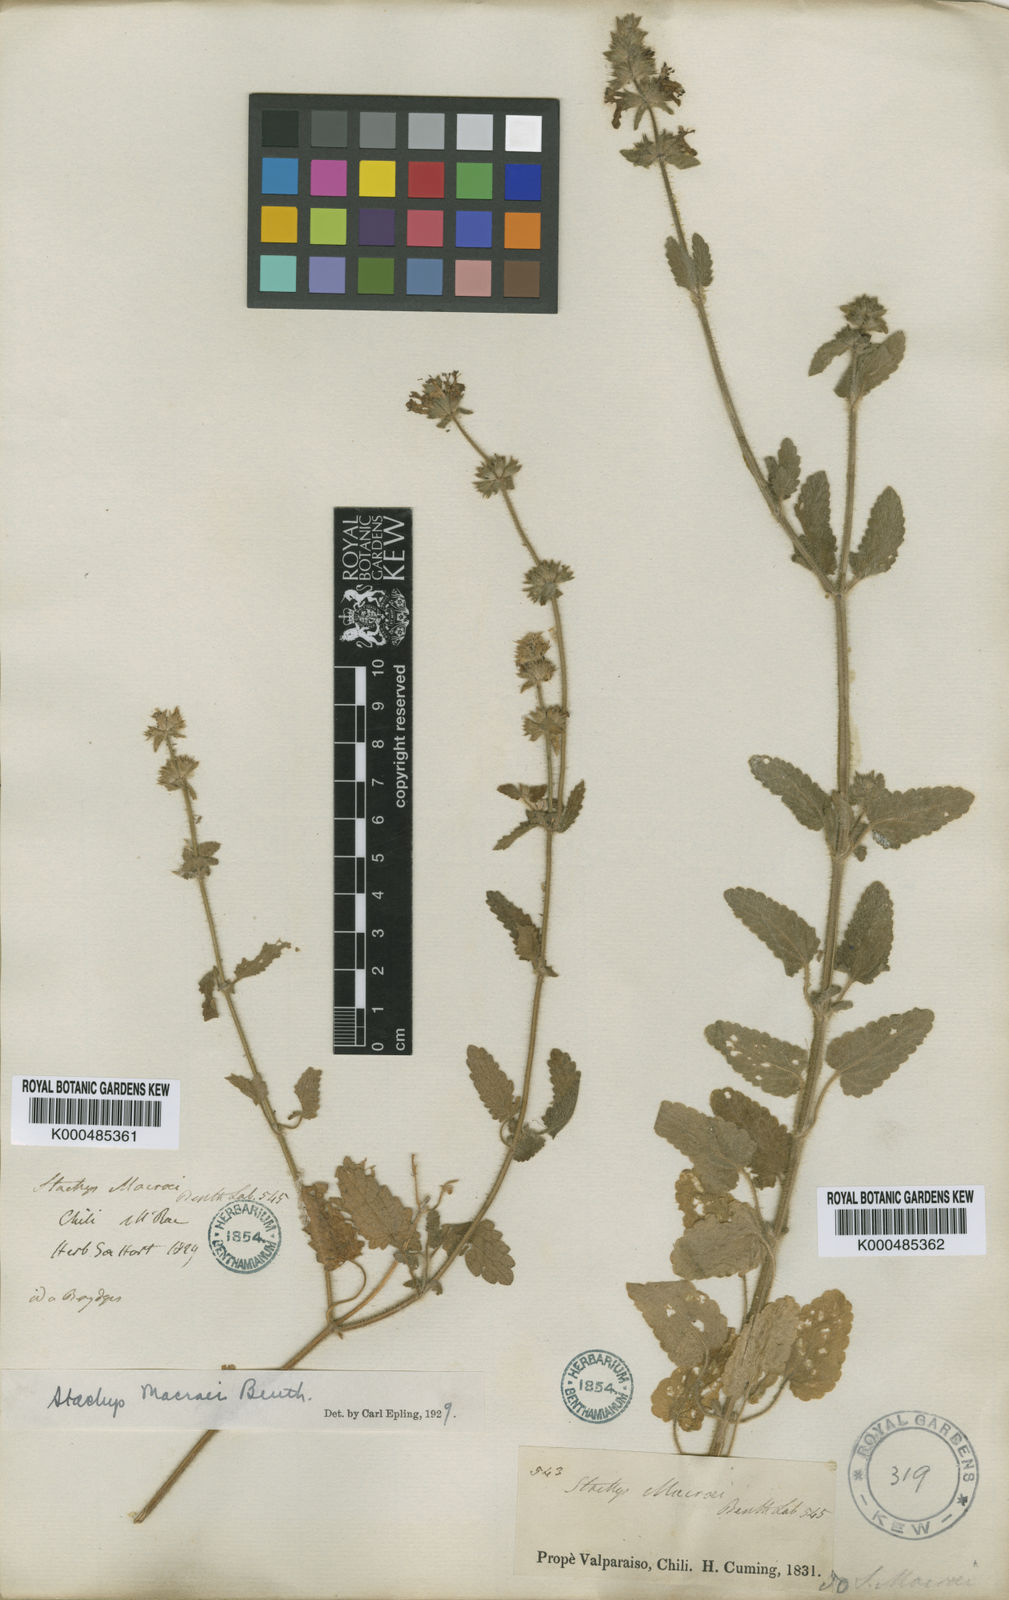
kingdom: Plantae
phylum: Tracheophyta
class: Magnoliopsida
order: Lamiales
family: Lamiaceae
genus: Stachys
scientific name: Stachys macraei
